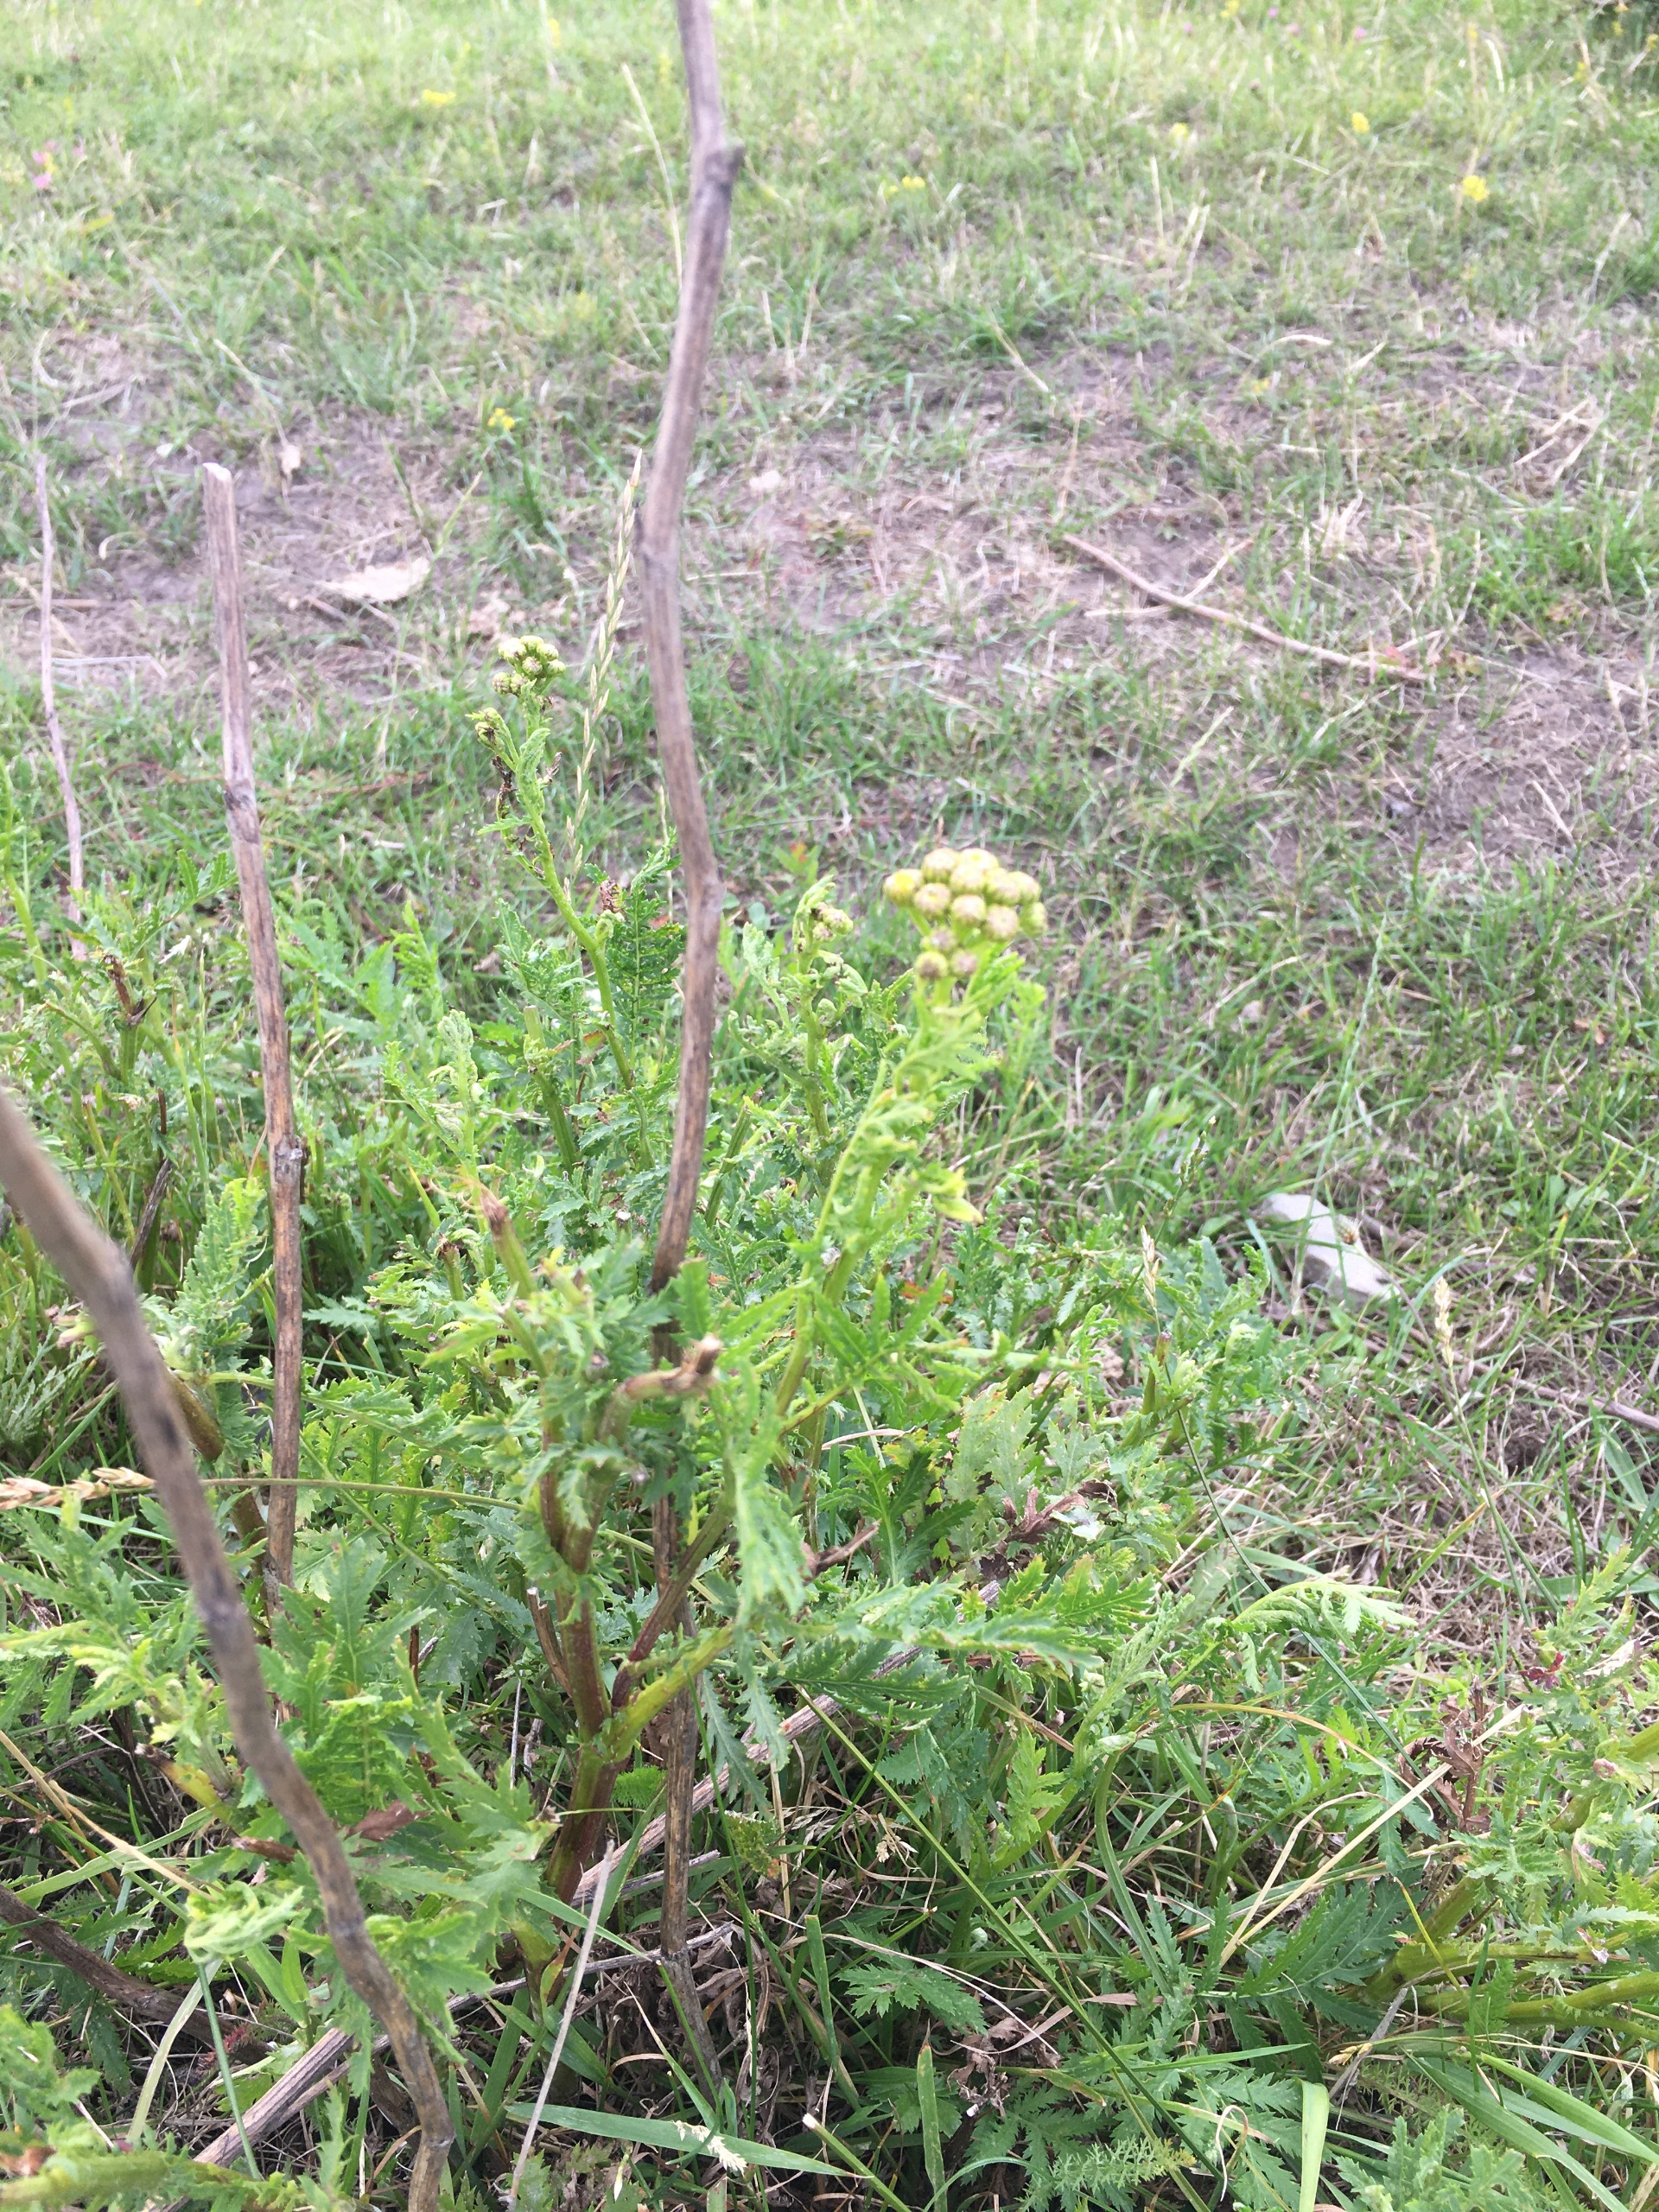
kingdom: Plantae
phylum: Tracheophyta
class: Magnoliopsida
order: Asterales
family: Asteraceae
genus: Tanacetum
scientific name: Tanacetum vulgare
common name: Rejnfan
